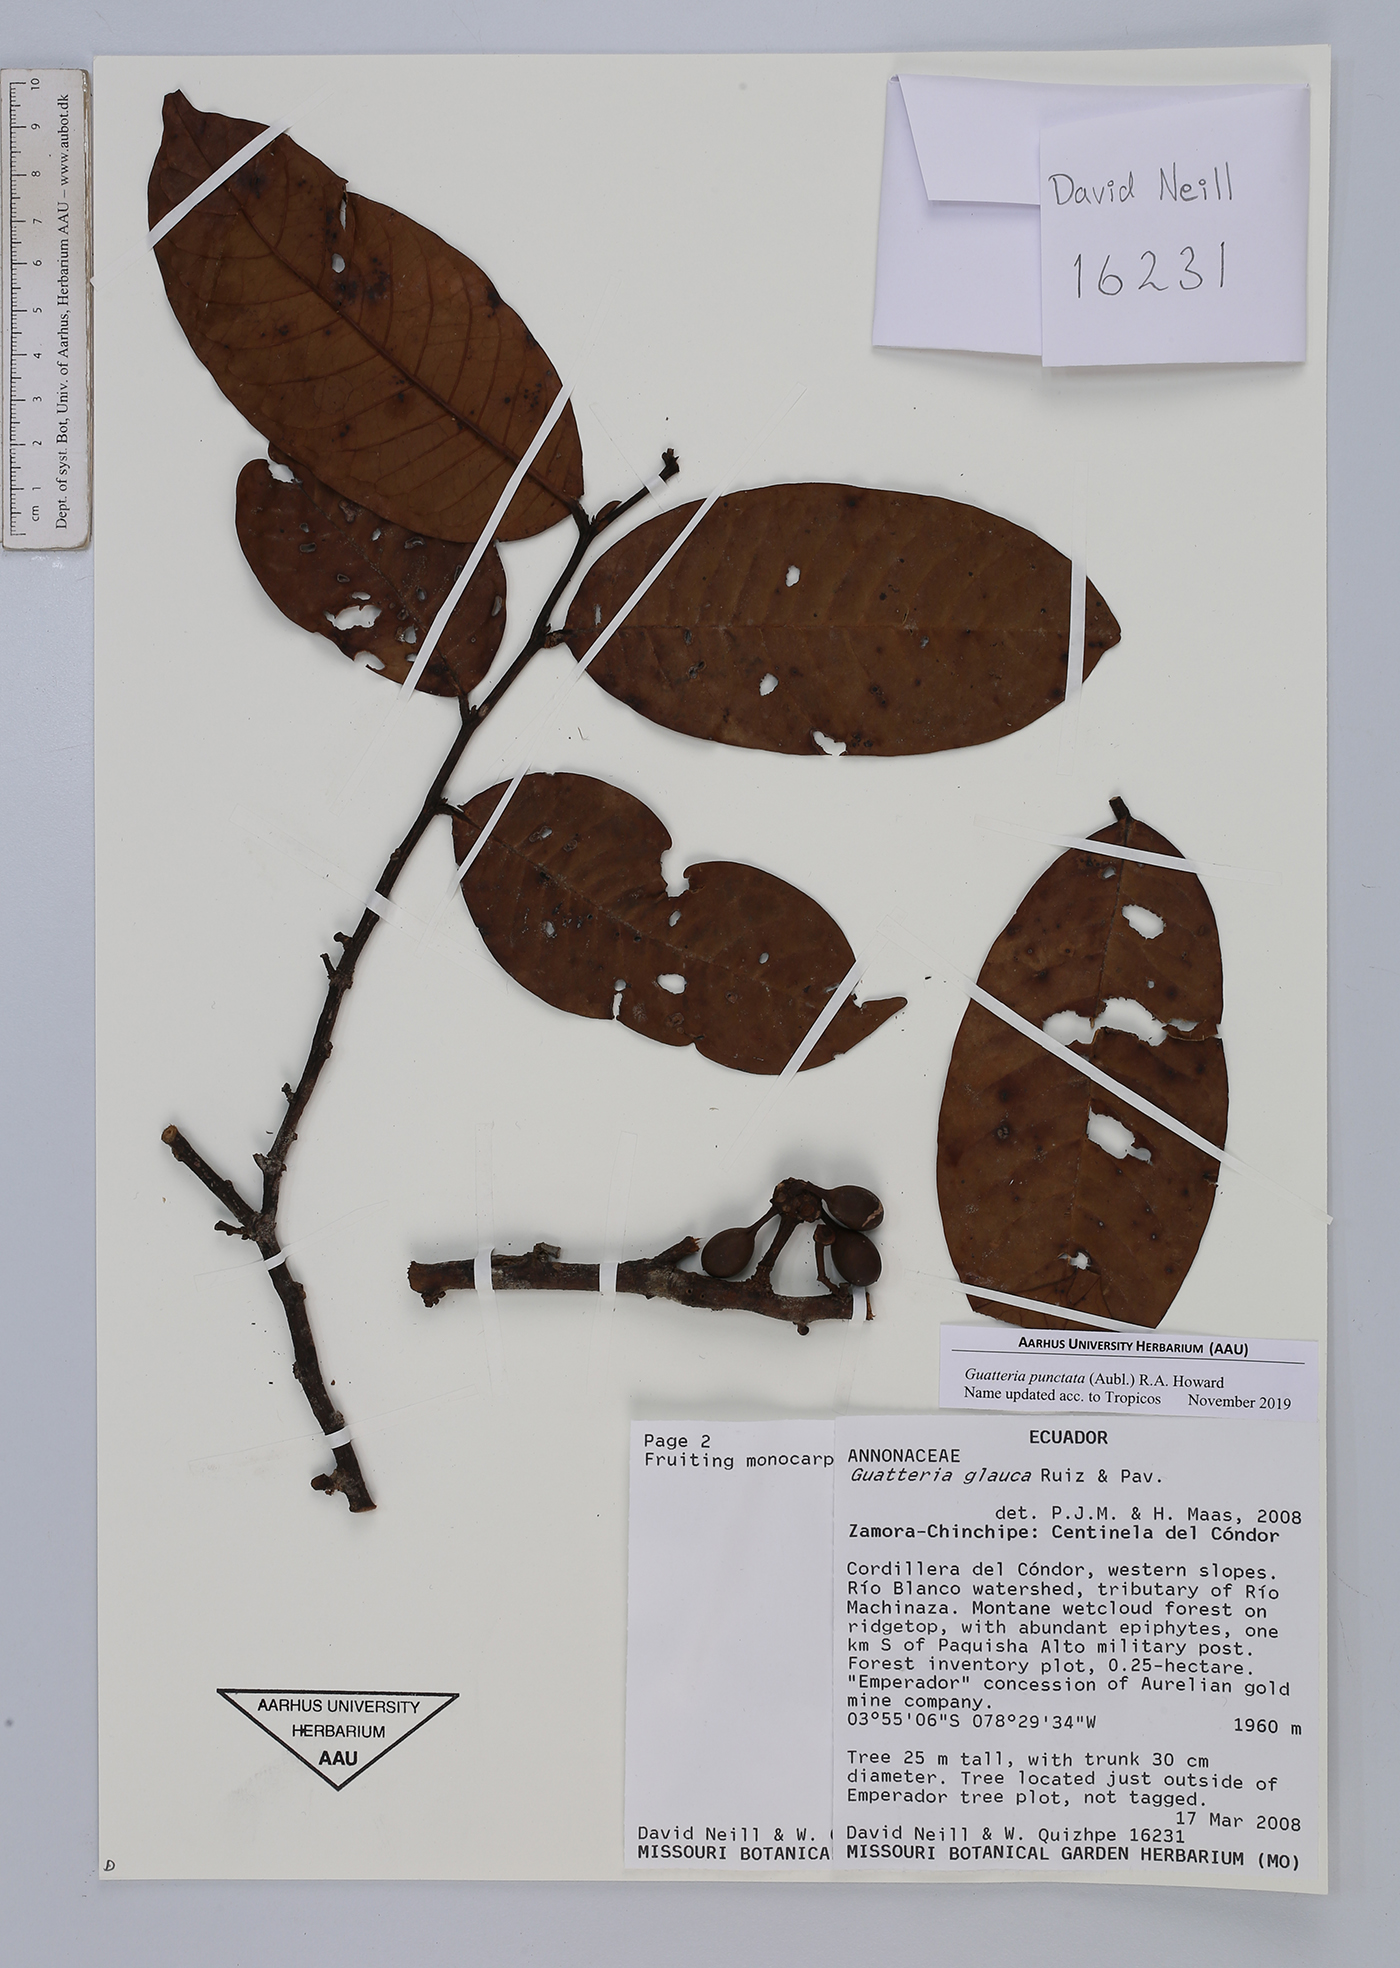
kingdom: Plantae
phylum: Tracheophyta
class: Magnoliopsida
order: Magnoliales
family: Annonaceae
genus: Guatteria
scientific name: Guatteria punctata
